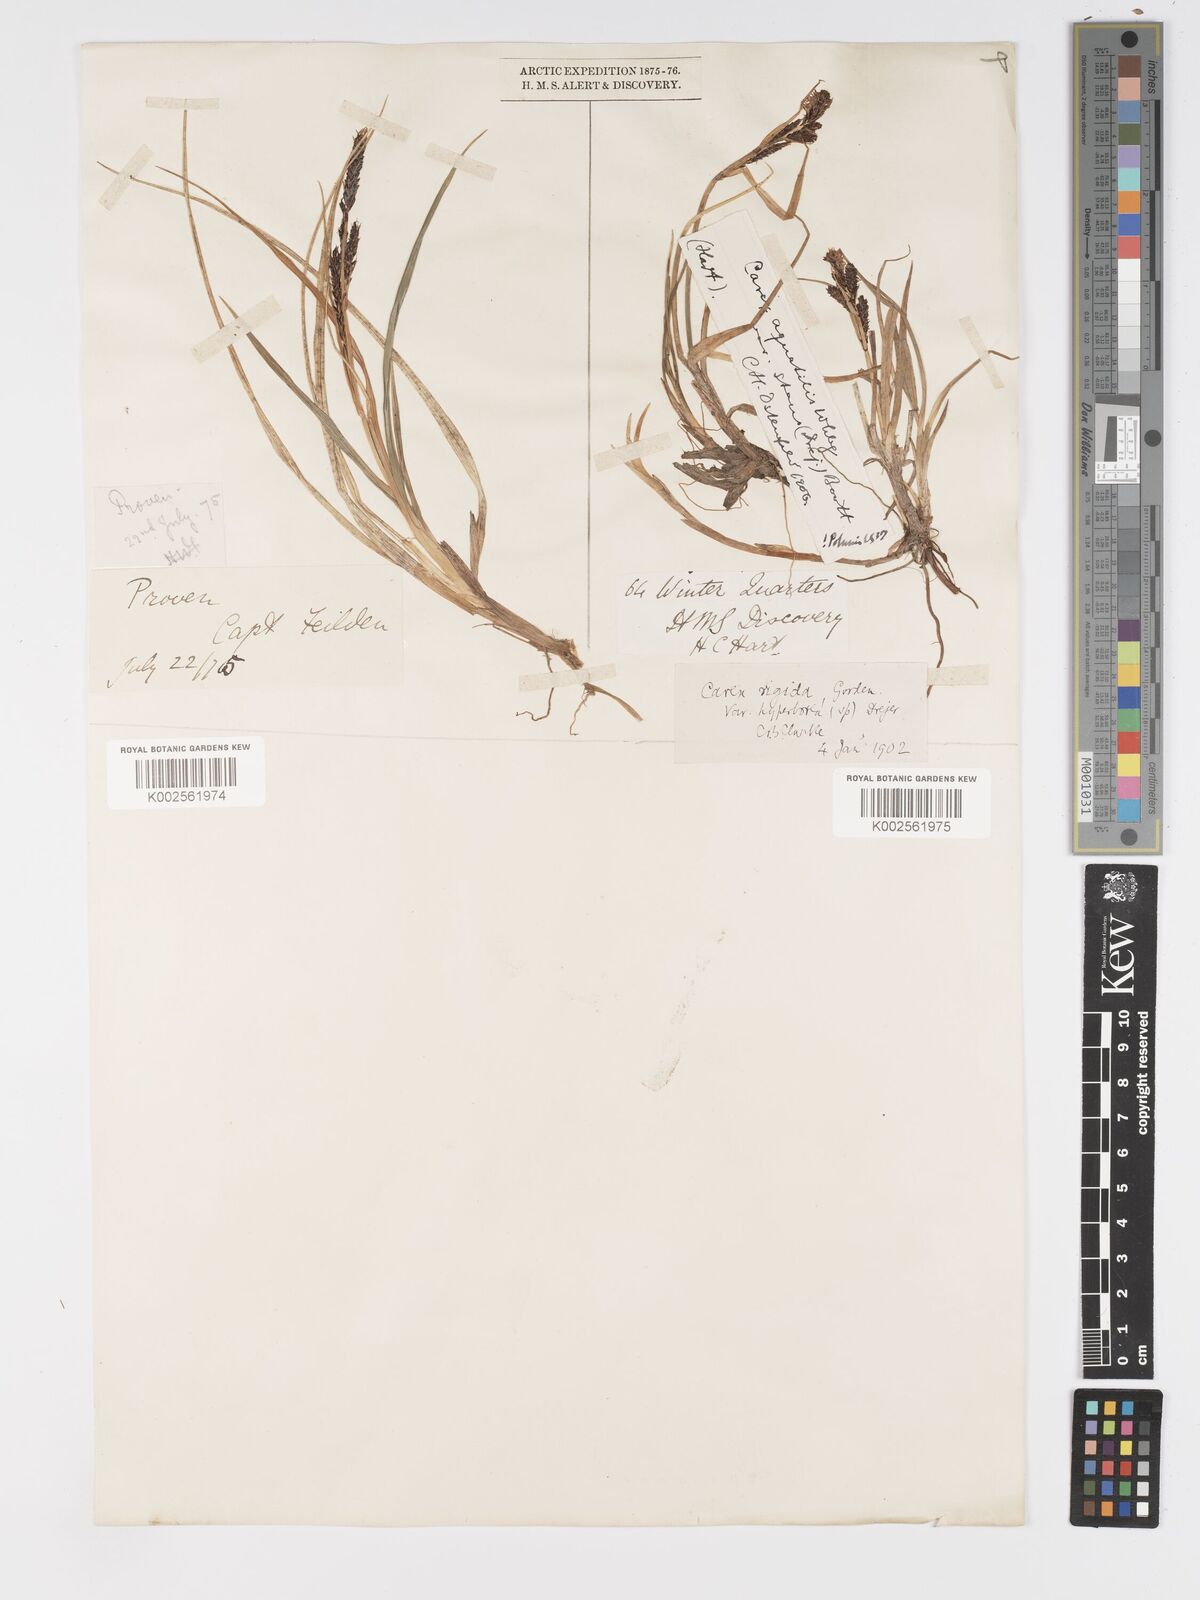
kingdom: Plantae
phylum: Tracheophyta
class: Liliopsida
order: Poales
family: Cyperaceae
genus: Carex
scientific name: Carex bigelowii
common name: Stiff sedge
